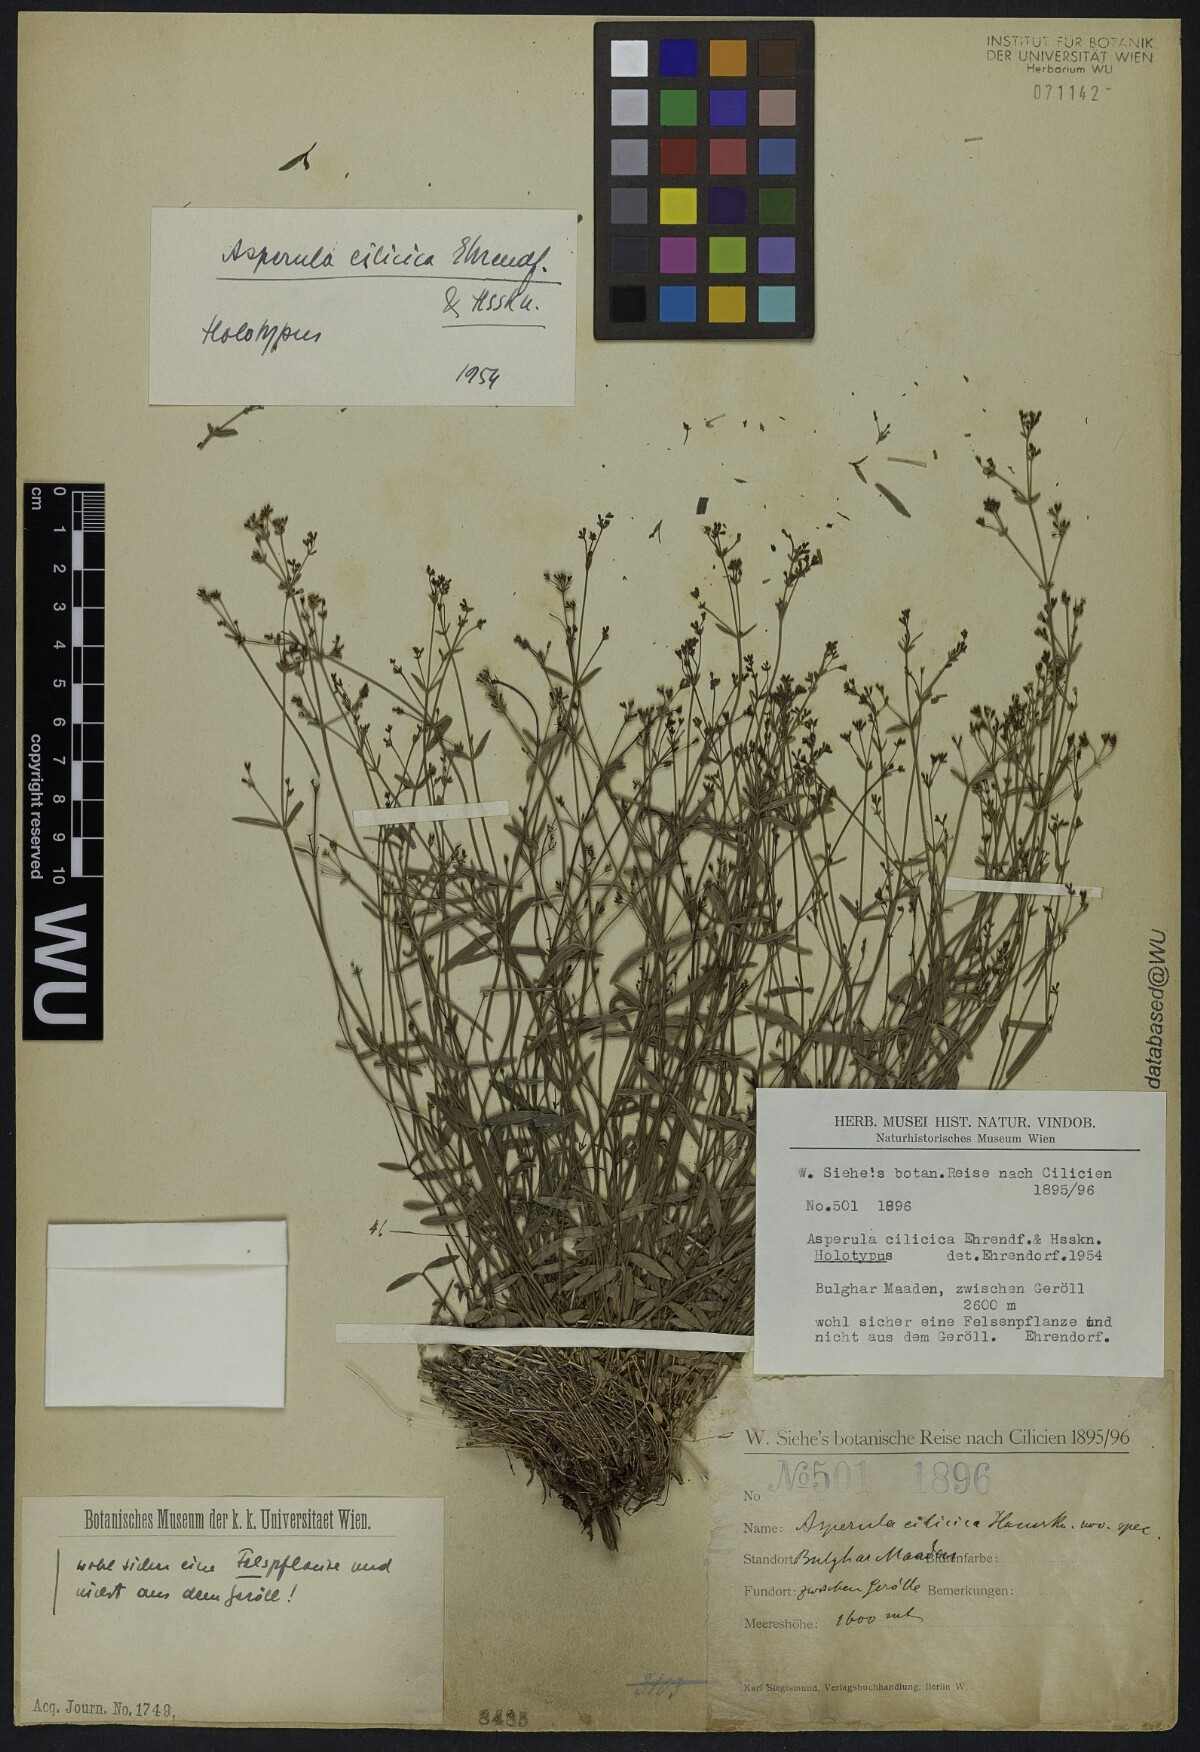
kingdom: Plantae
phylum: Tracheophyta
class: Magnoliopsida
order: Gentianales
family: Rubiaceae
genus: Asperula
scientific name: Asperula cilicia
